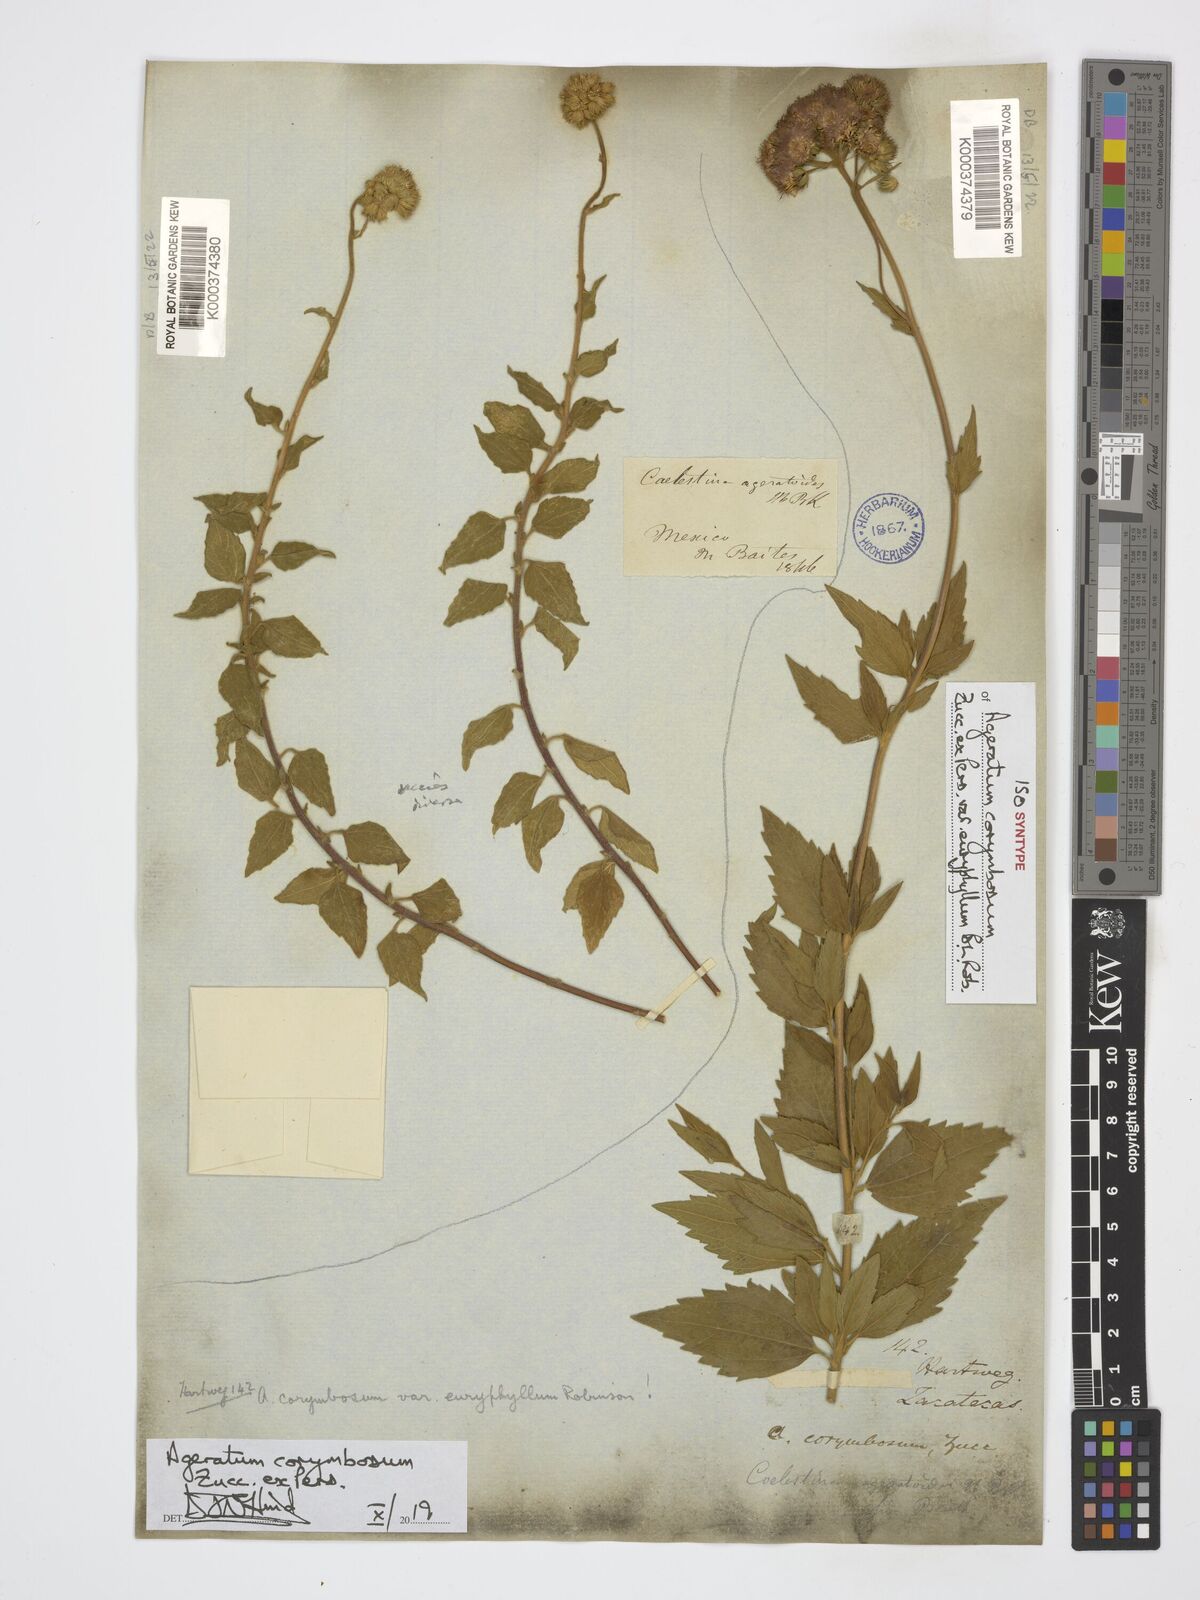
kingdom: Plantae
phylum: Tracheophyta
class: Magnoliopsida
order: Asterales
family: Asteraceae
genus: Ageratum
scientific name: Ageratum corymbosum
